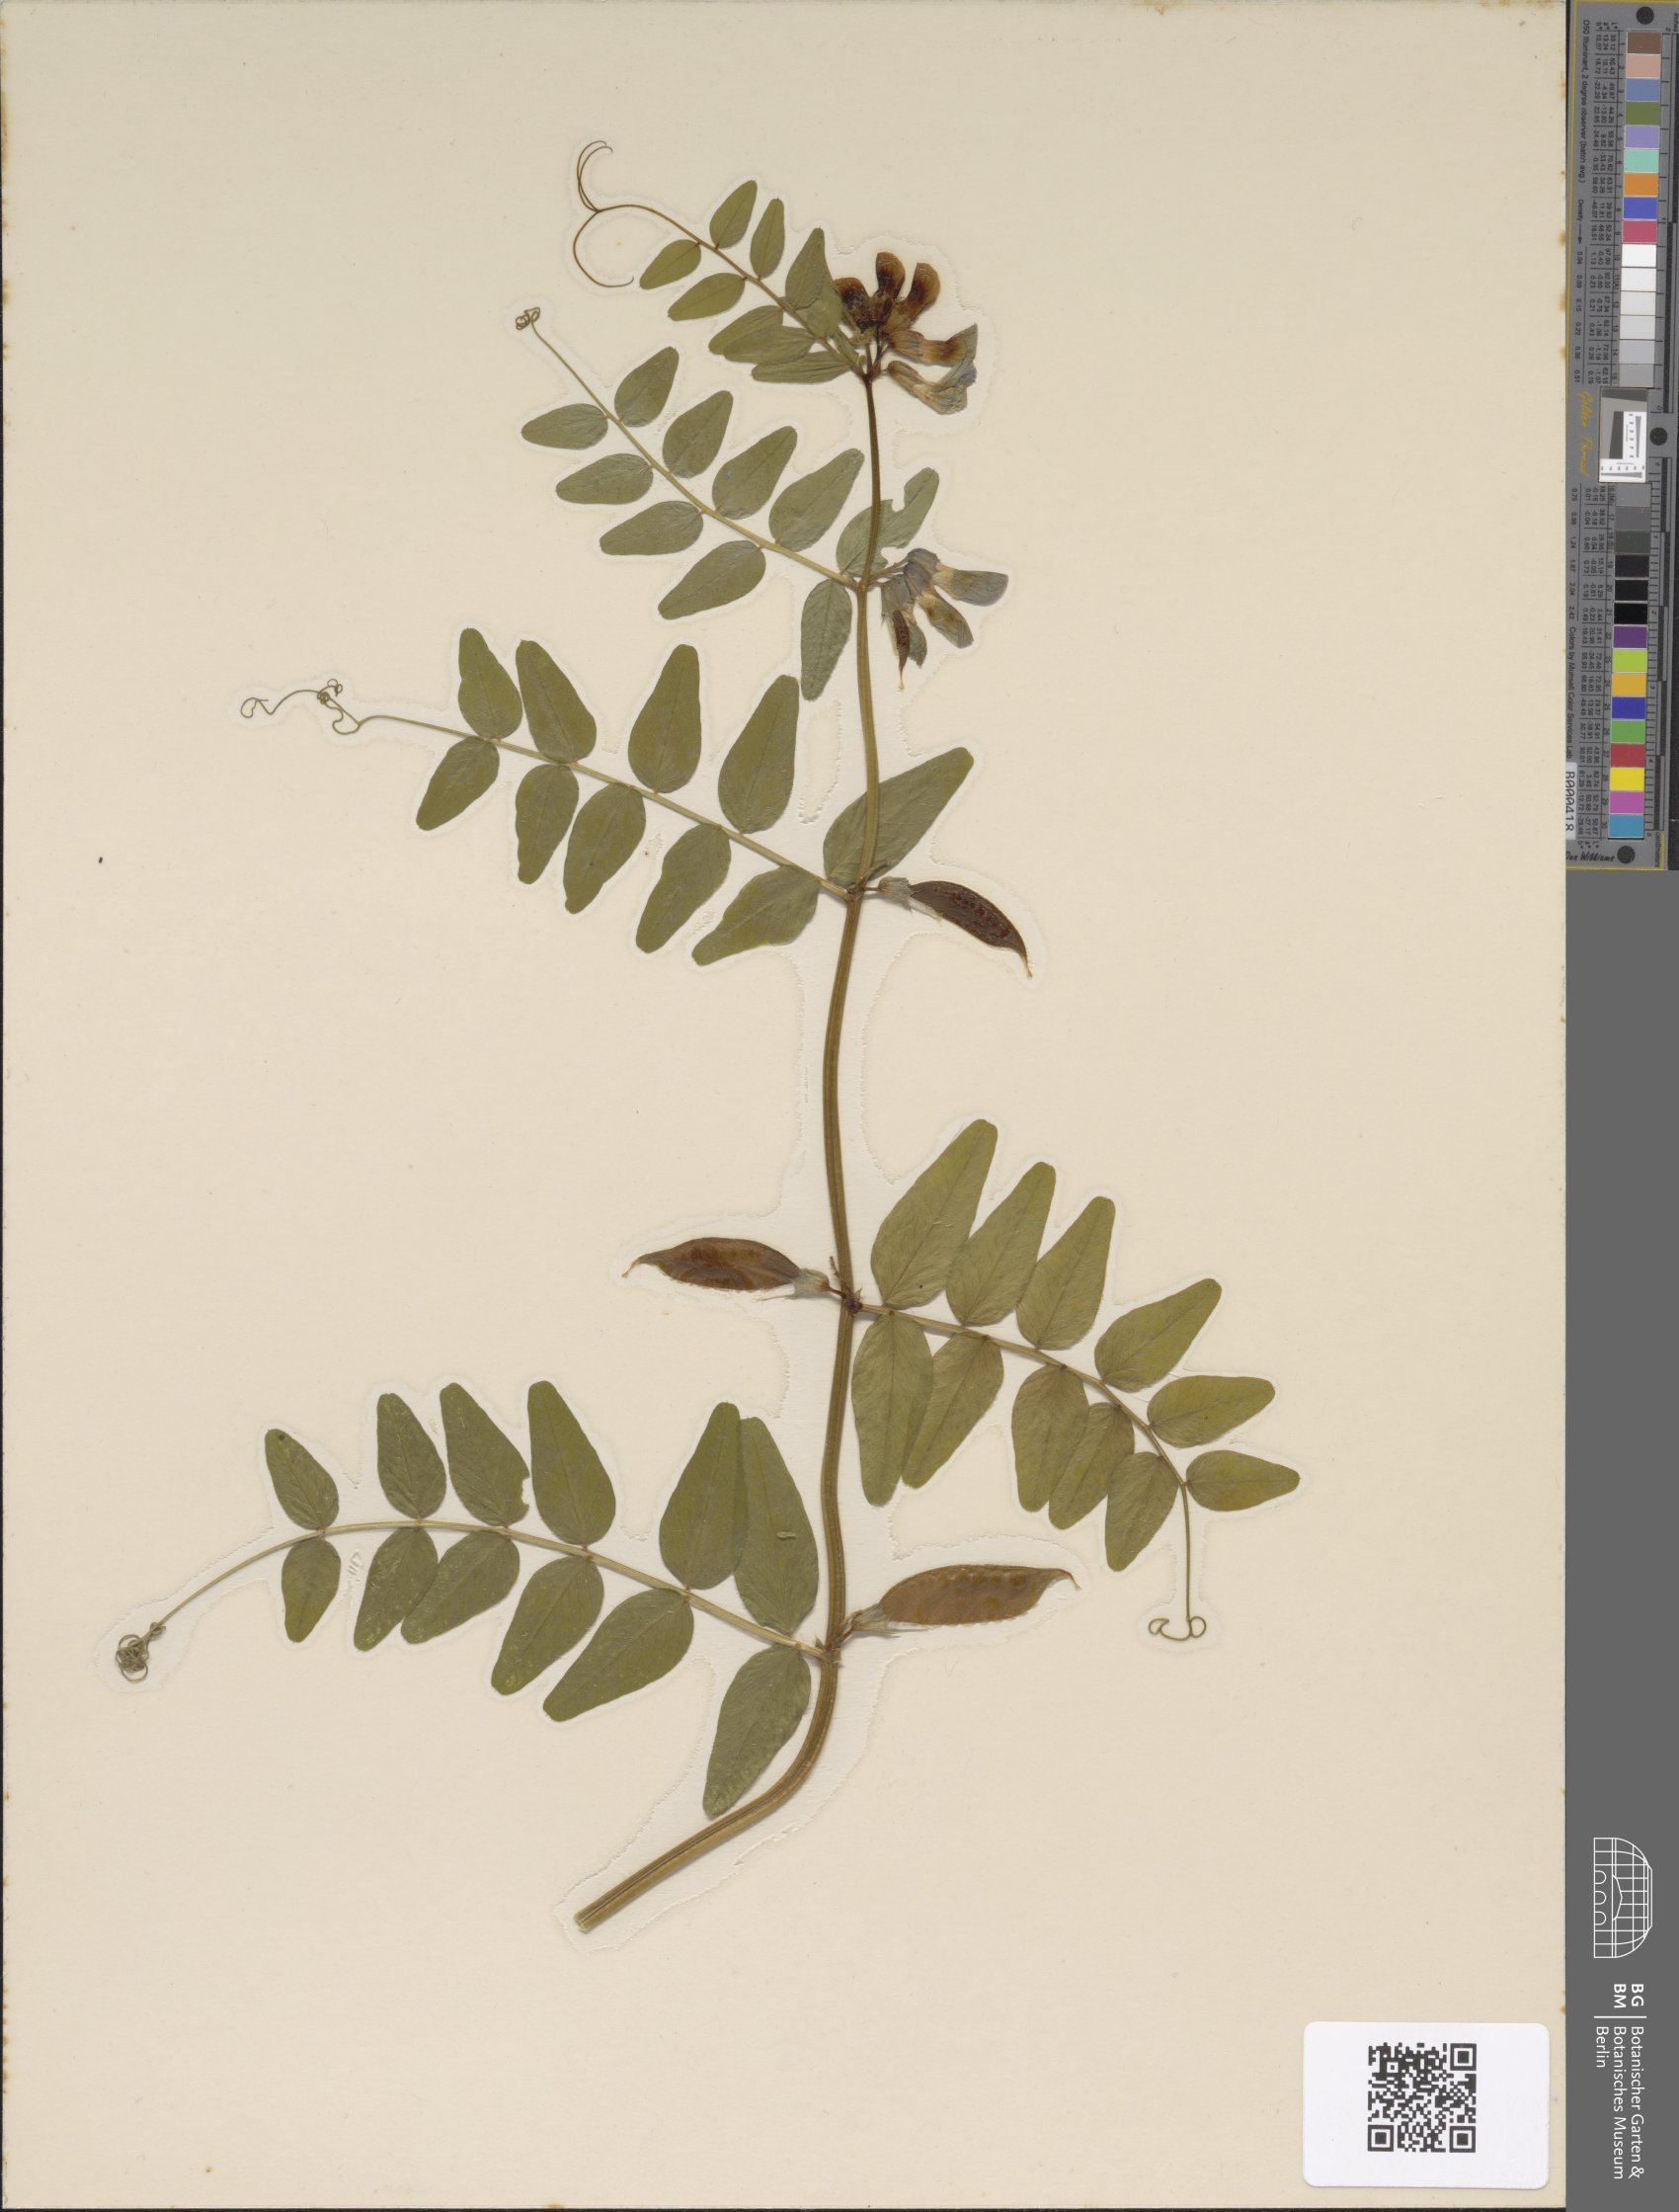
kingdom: Plantae
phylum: Tracheophyta
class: Magnoliopsida
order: Fabales
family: Fabaceae
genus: Vicia
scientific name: Vicia sepium
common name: Bush vetch
